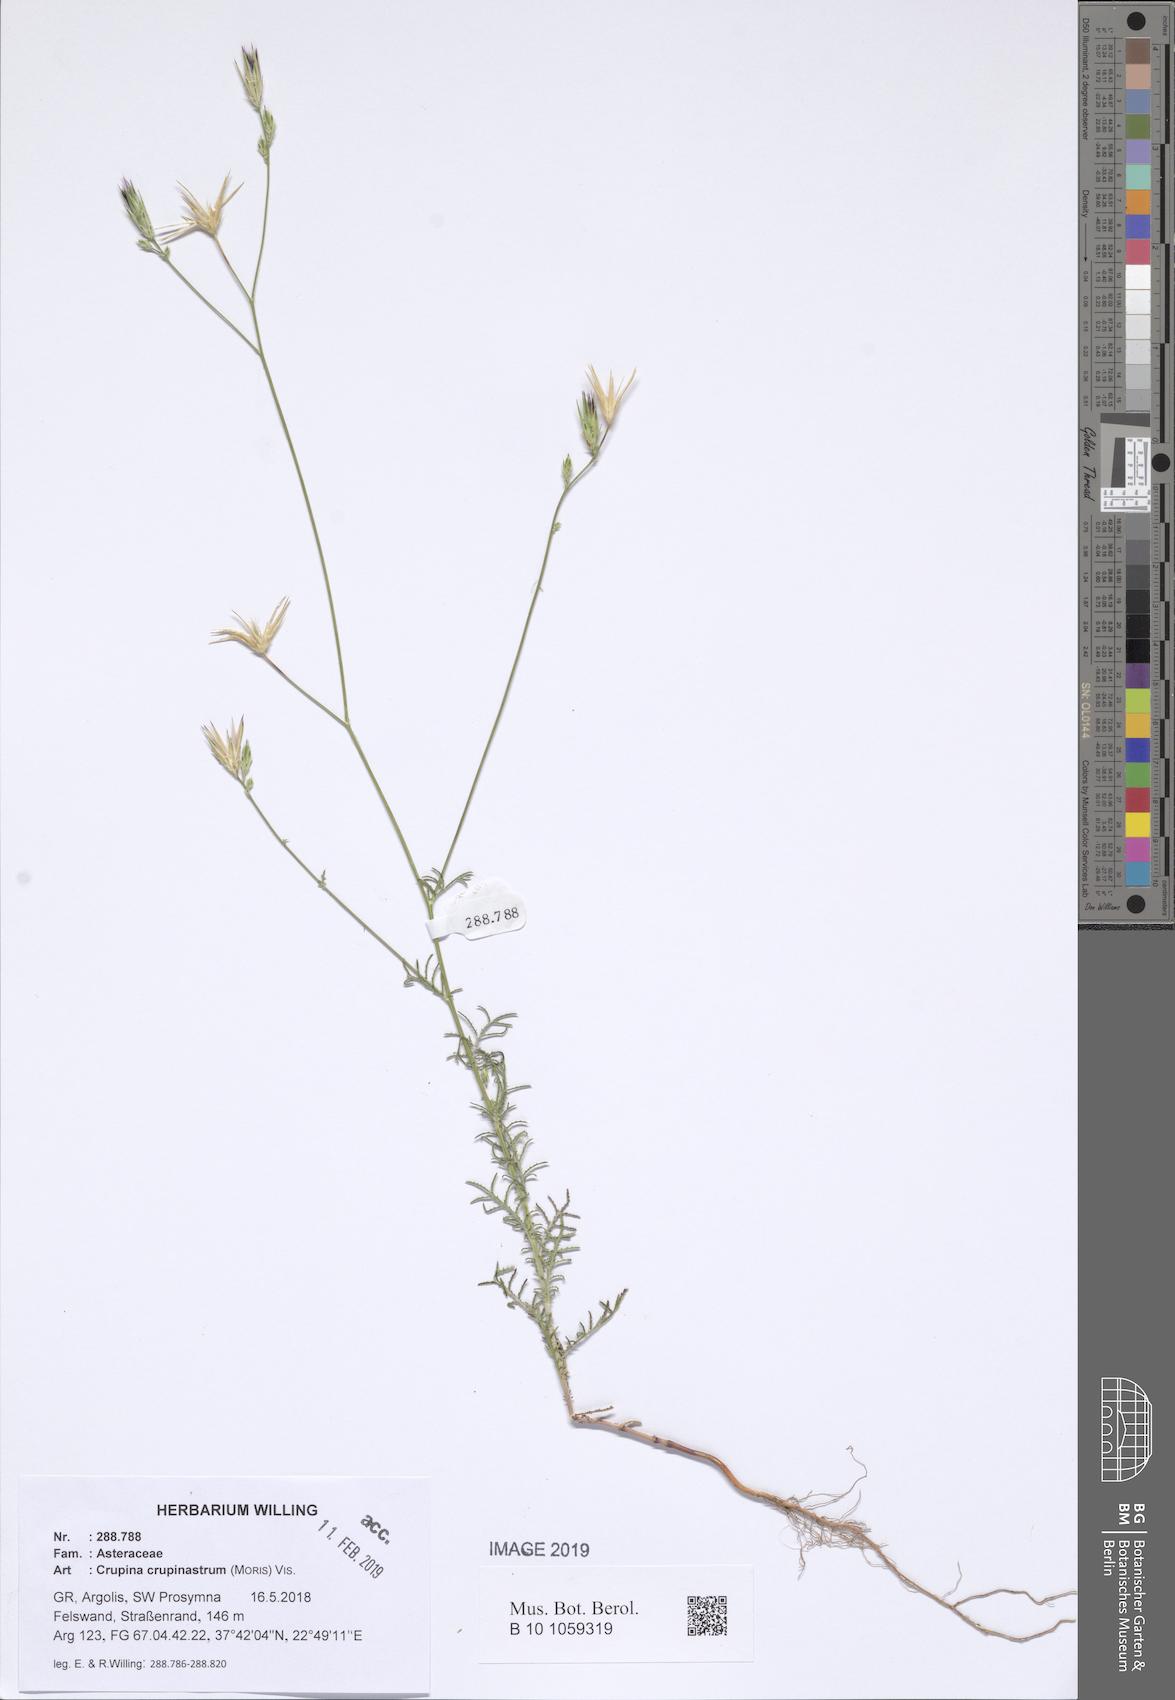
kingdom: Plantae
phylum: Tracheophyta
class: Magnoliopsida
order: Asterales
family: Asteraceae
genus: Crupina
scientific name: Crupina crupinastrum
